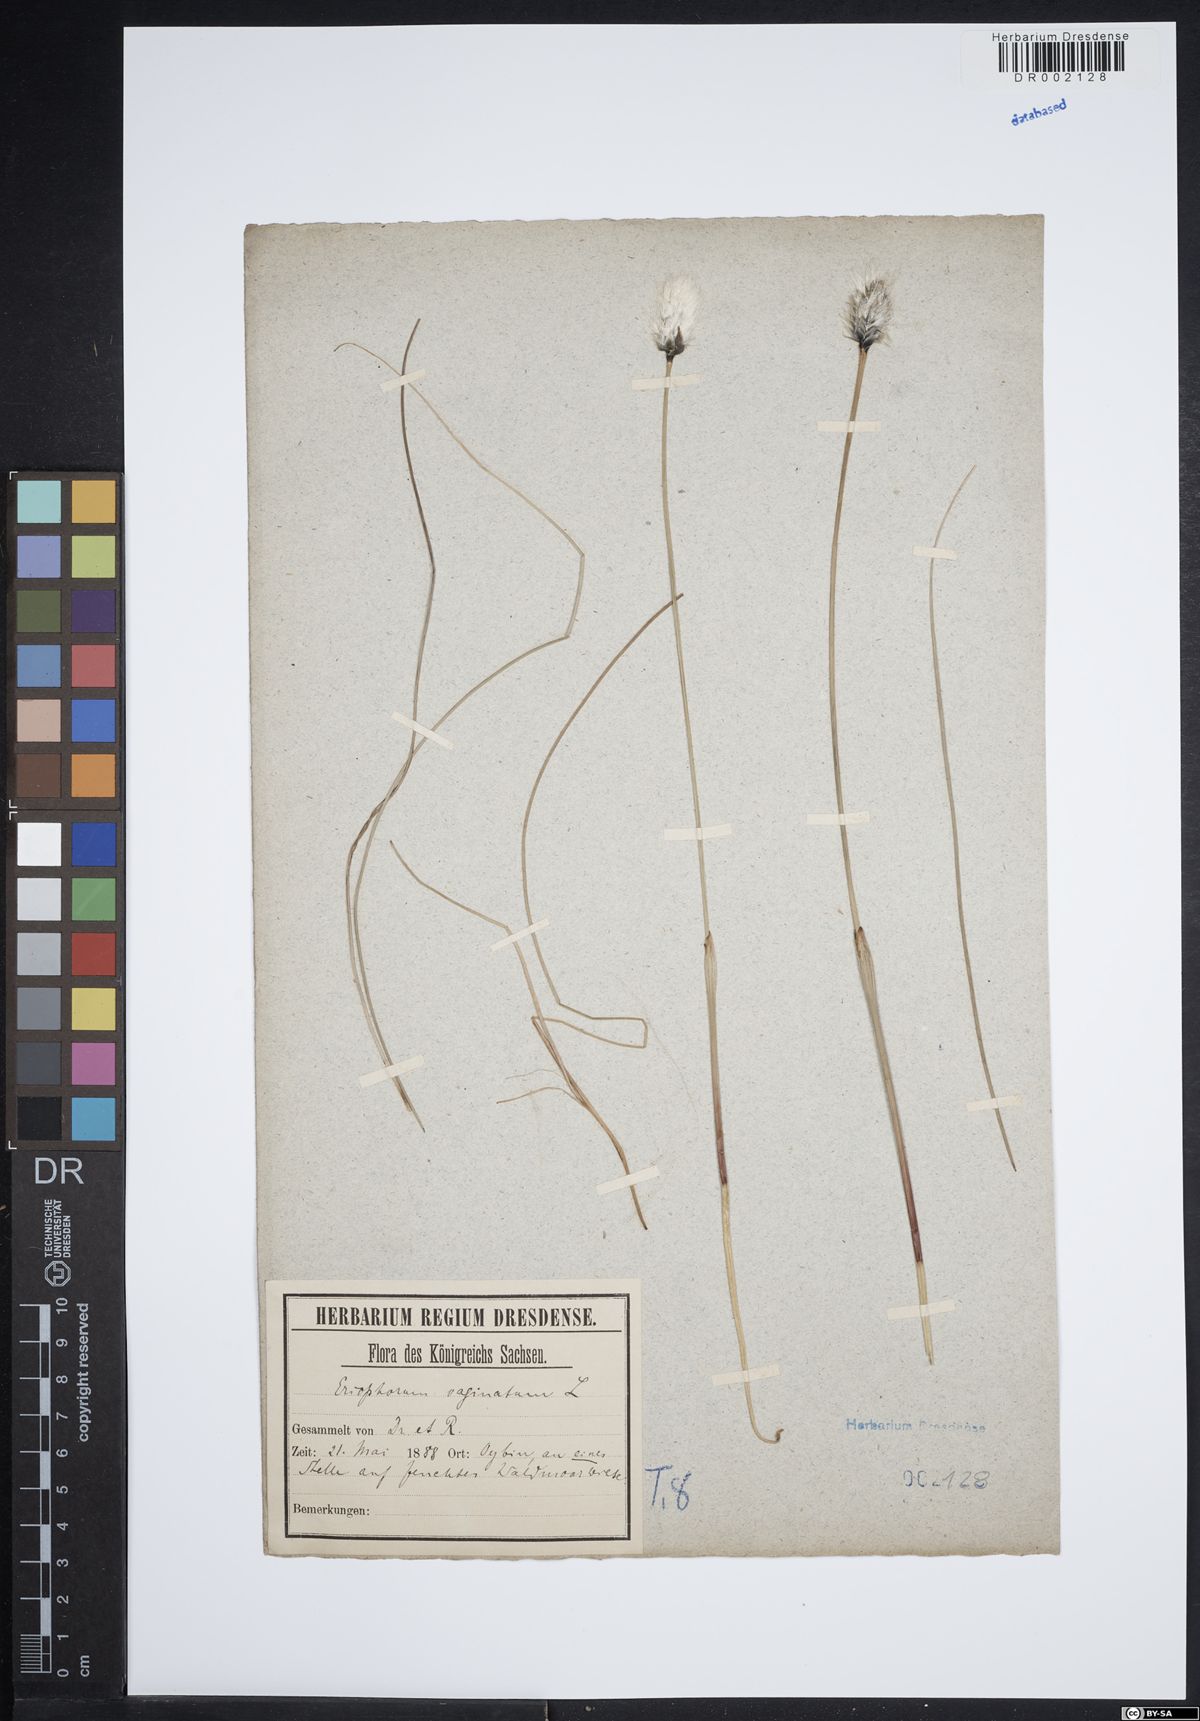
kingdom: Plantae
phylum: Tracheophyta
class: Liliopsida
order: Poales
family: Cyperaceae
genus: Eriophorum
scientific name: Eriophorum vaginatum
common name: Hare's-tail cottongrass
